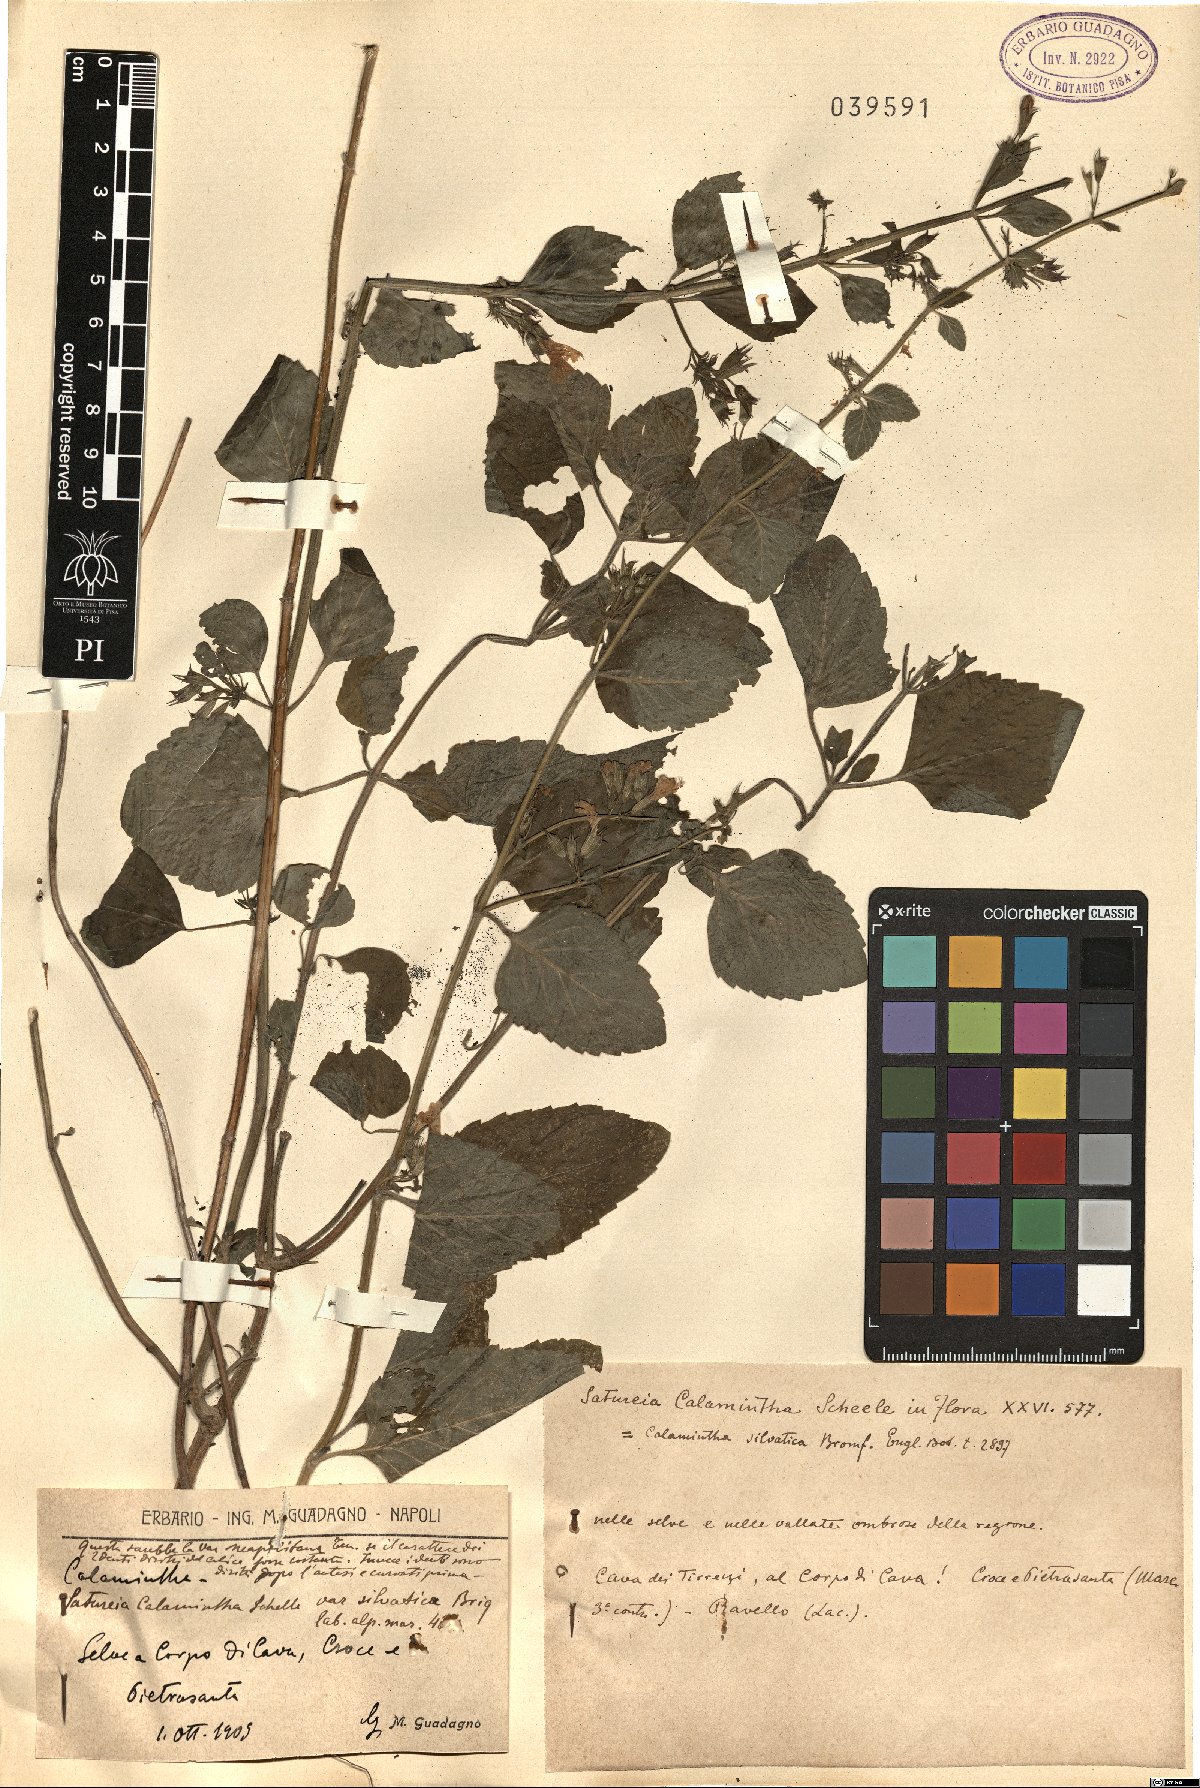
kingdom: Plantae
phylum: Tracheophyta
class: Magnoliopsida
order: Lamiales
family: Lamiaceae
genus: Clinopodium
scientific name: Clinopodium menthifolium
